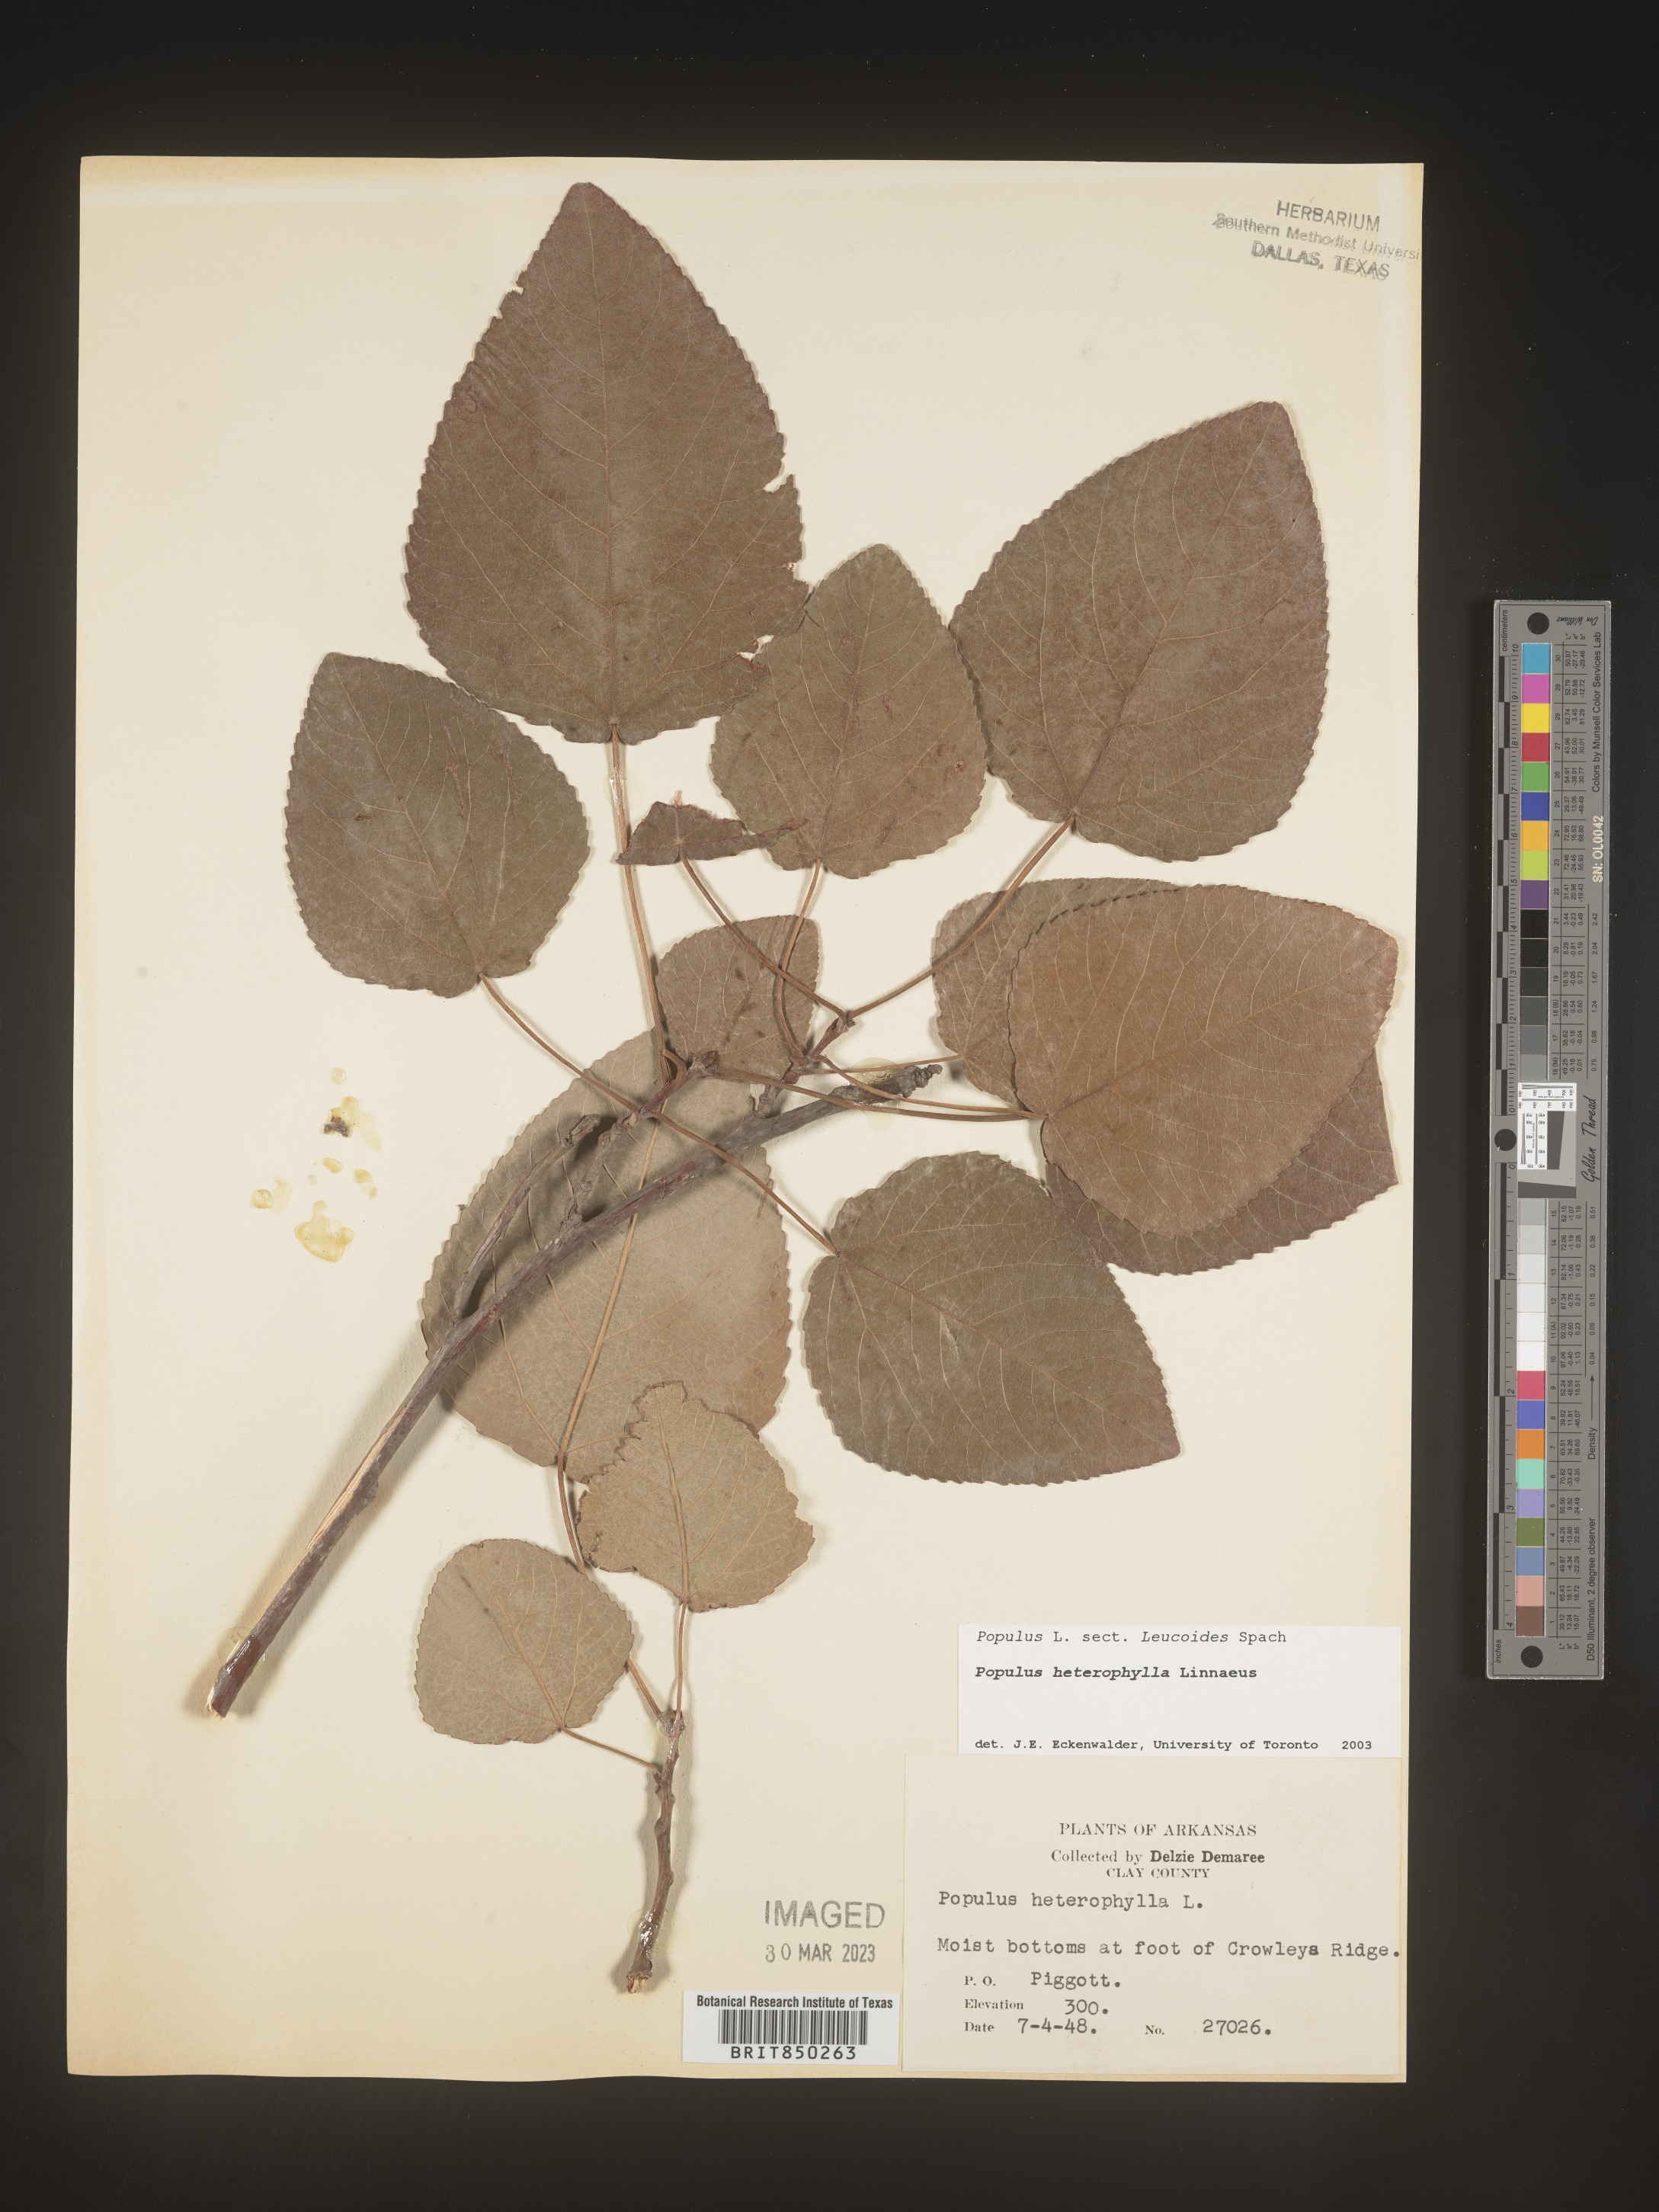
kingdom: Plantae
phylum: Tracheophyta
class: Magnoliopsida
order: Malpighiales
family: Salicaceae
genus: Populus
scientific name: Populus heterophylla
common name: Downy poplar
